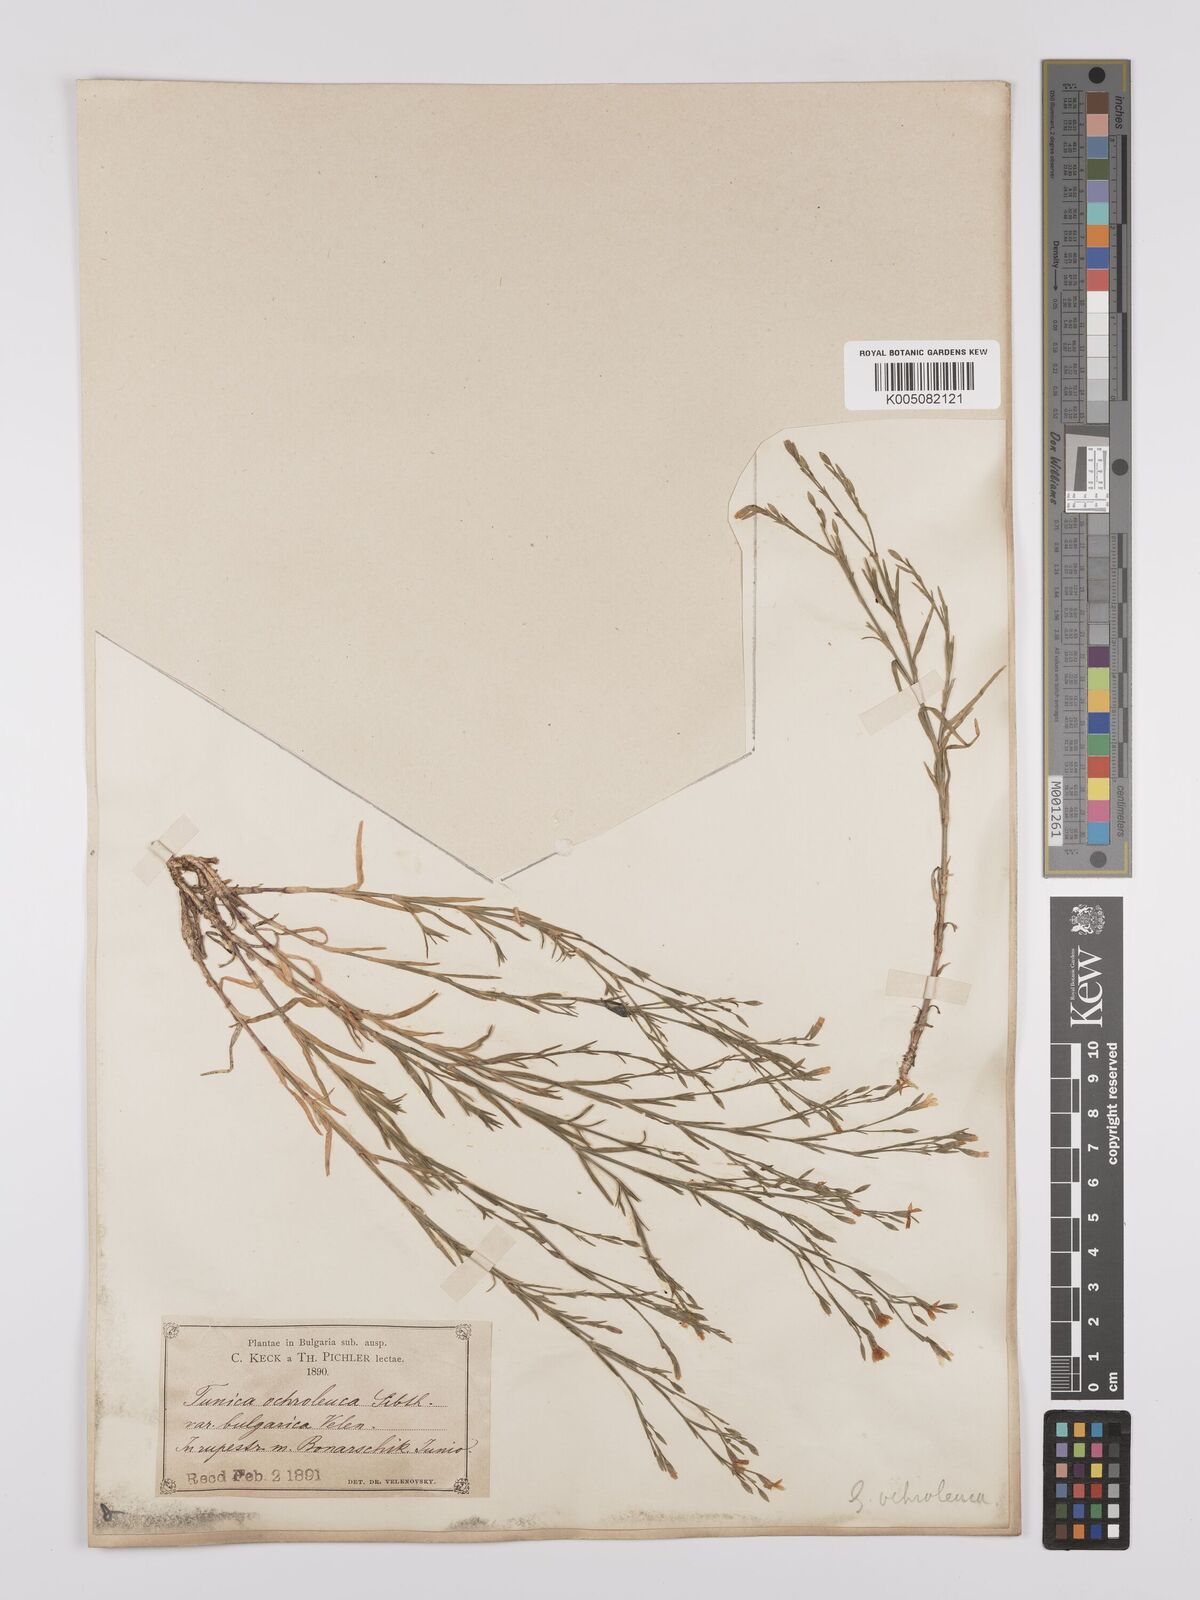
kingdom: Plantae
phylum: Tracheophyta
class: Magnoliopsida
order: Caryophyllales
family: Caryophyllaceae
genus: Dianthus
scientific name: Dianthus illyricus
